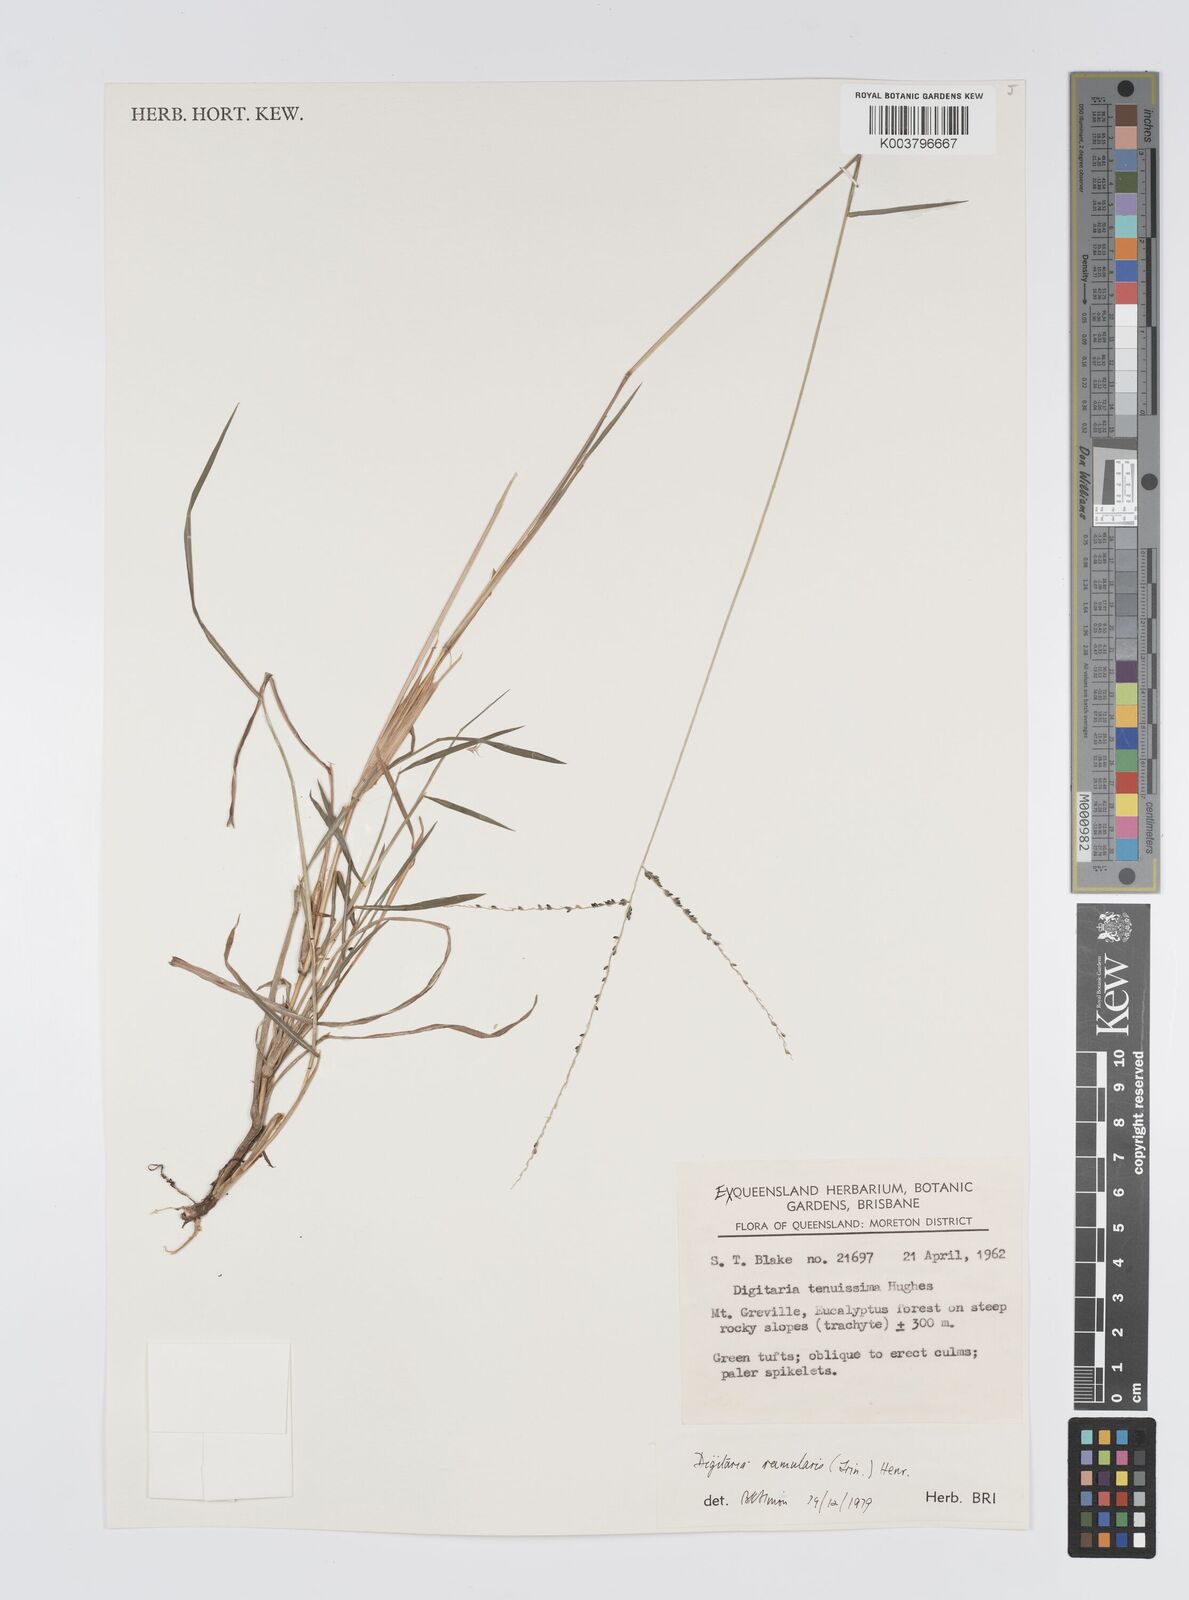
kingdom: Plantae
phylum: Tracheophyta
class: Liliopsida
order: Poales
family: Poaceae
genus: Digitaria
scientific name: Digitaria ramularis
